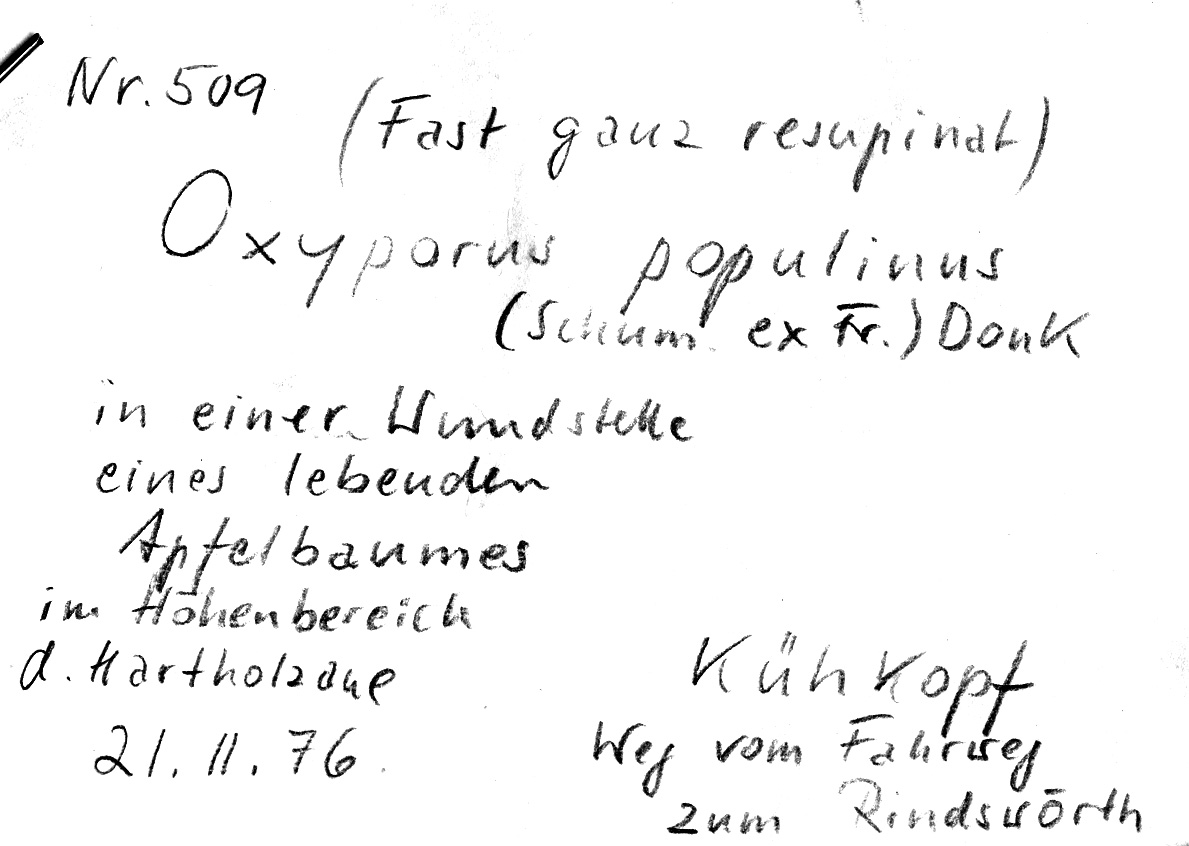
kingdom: Plantae
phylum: Tracheophyta
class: Magnoliopsida
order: Rosales
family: Rosaceae
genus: Malus
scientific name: Malus
